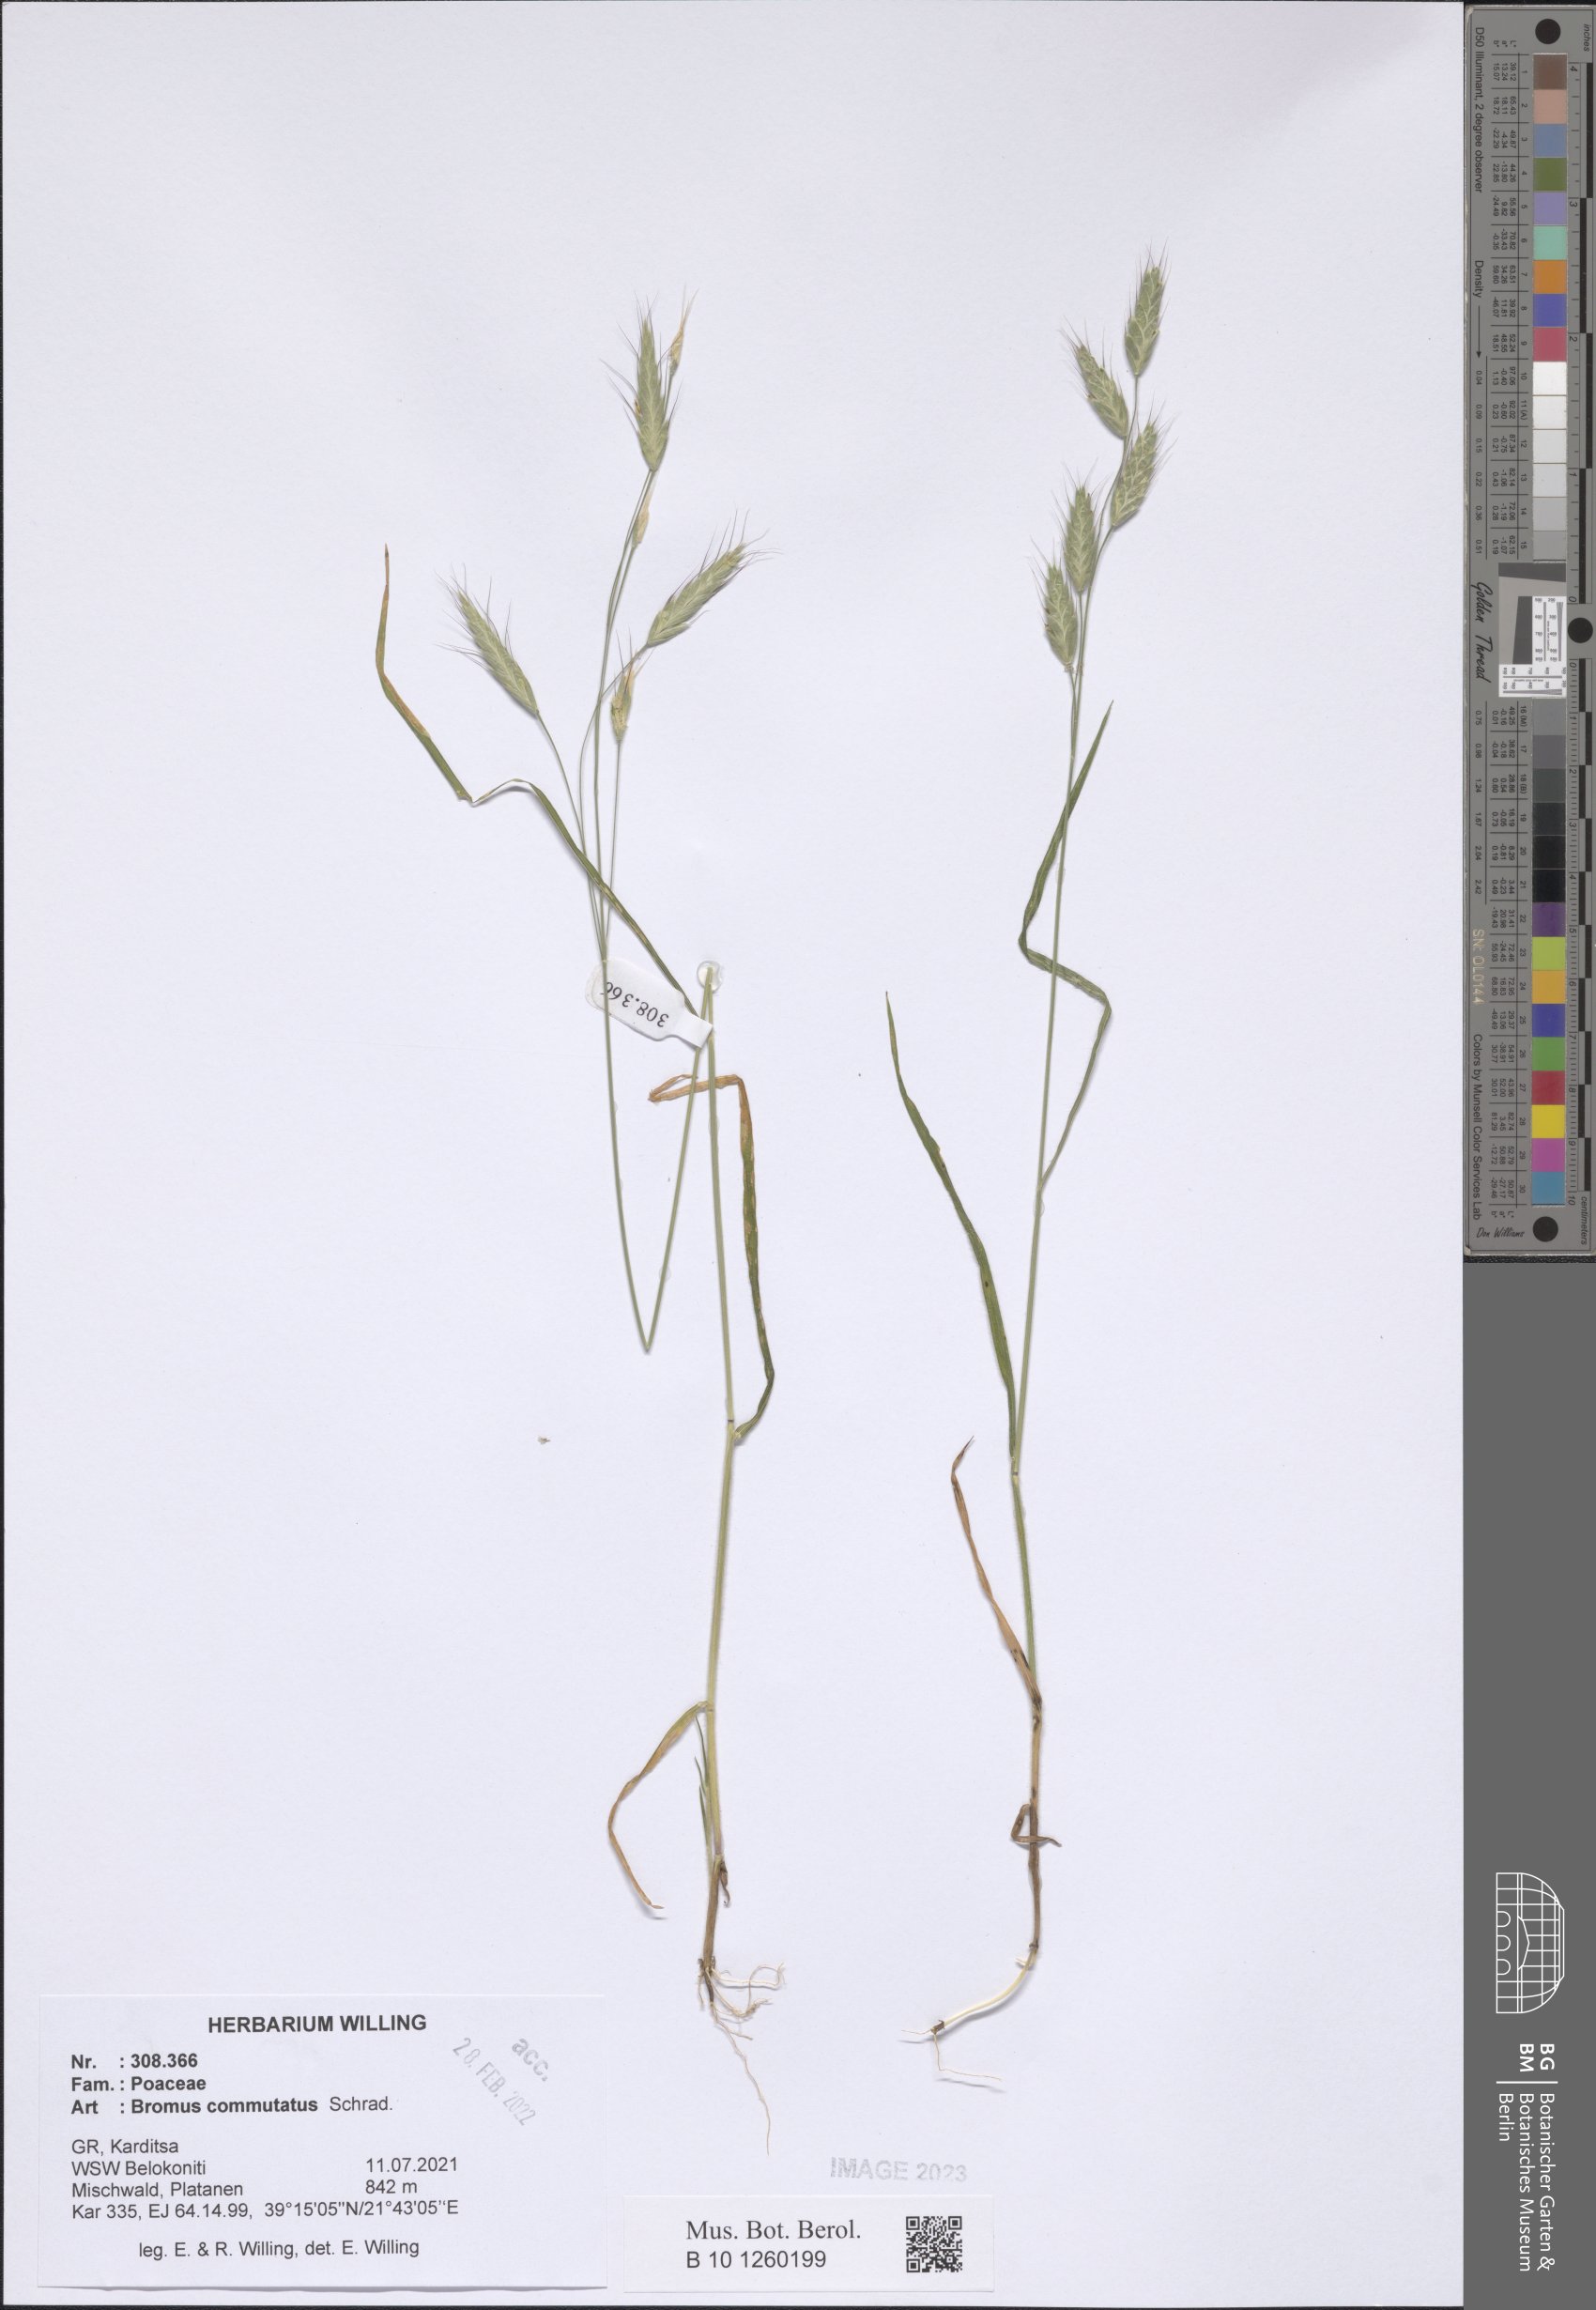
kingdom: Plantae
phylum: Tracheophyta
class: Liliopsida
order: Poales
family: Poaceae
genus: Bromus
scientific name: Bromus commutatus
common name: Meadow brome
